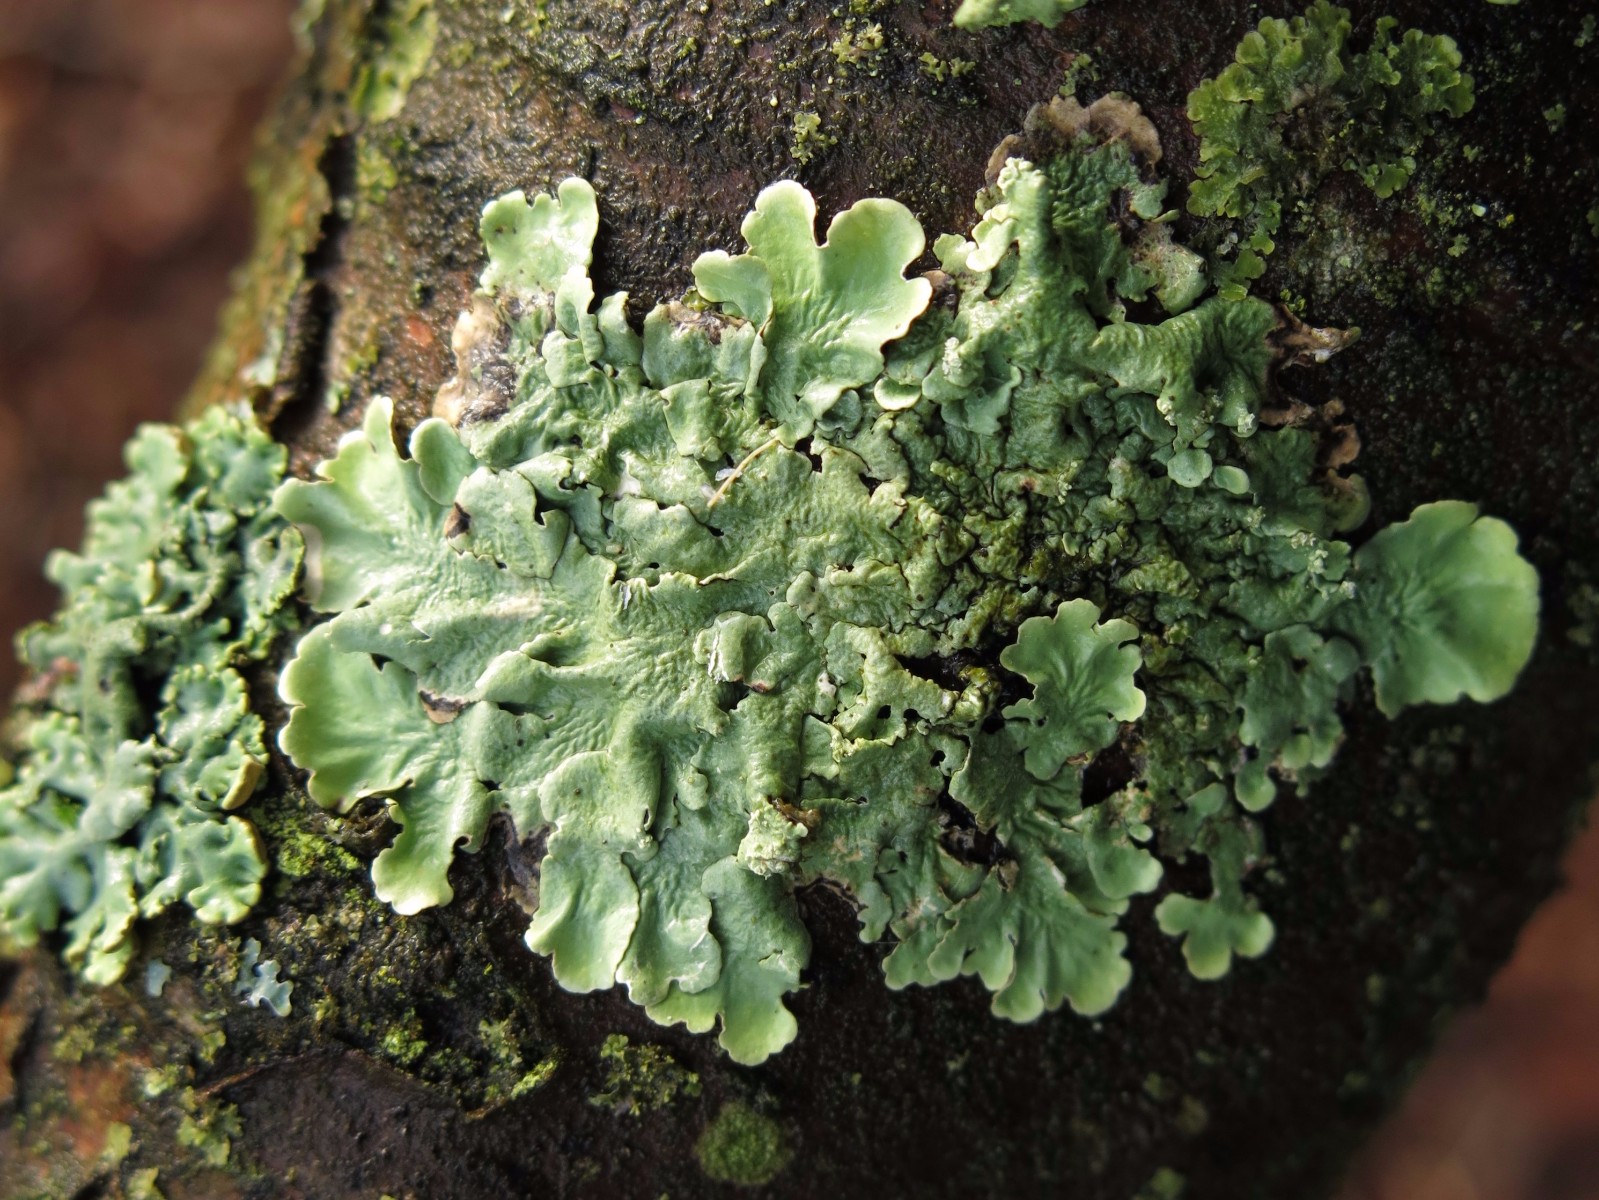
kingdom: Fungi
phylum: Ascomycota
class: Lecanoromycetes
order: Lecanorales
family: Parmeliaceae
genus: Flavoparmelia
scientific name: Flavoparmelia caperata
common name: gulgrøn skållav
